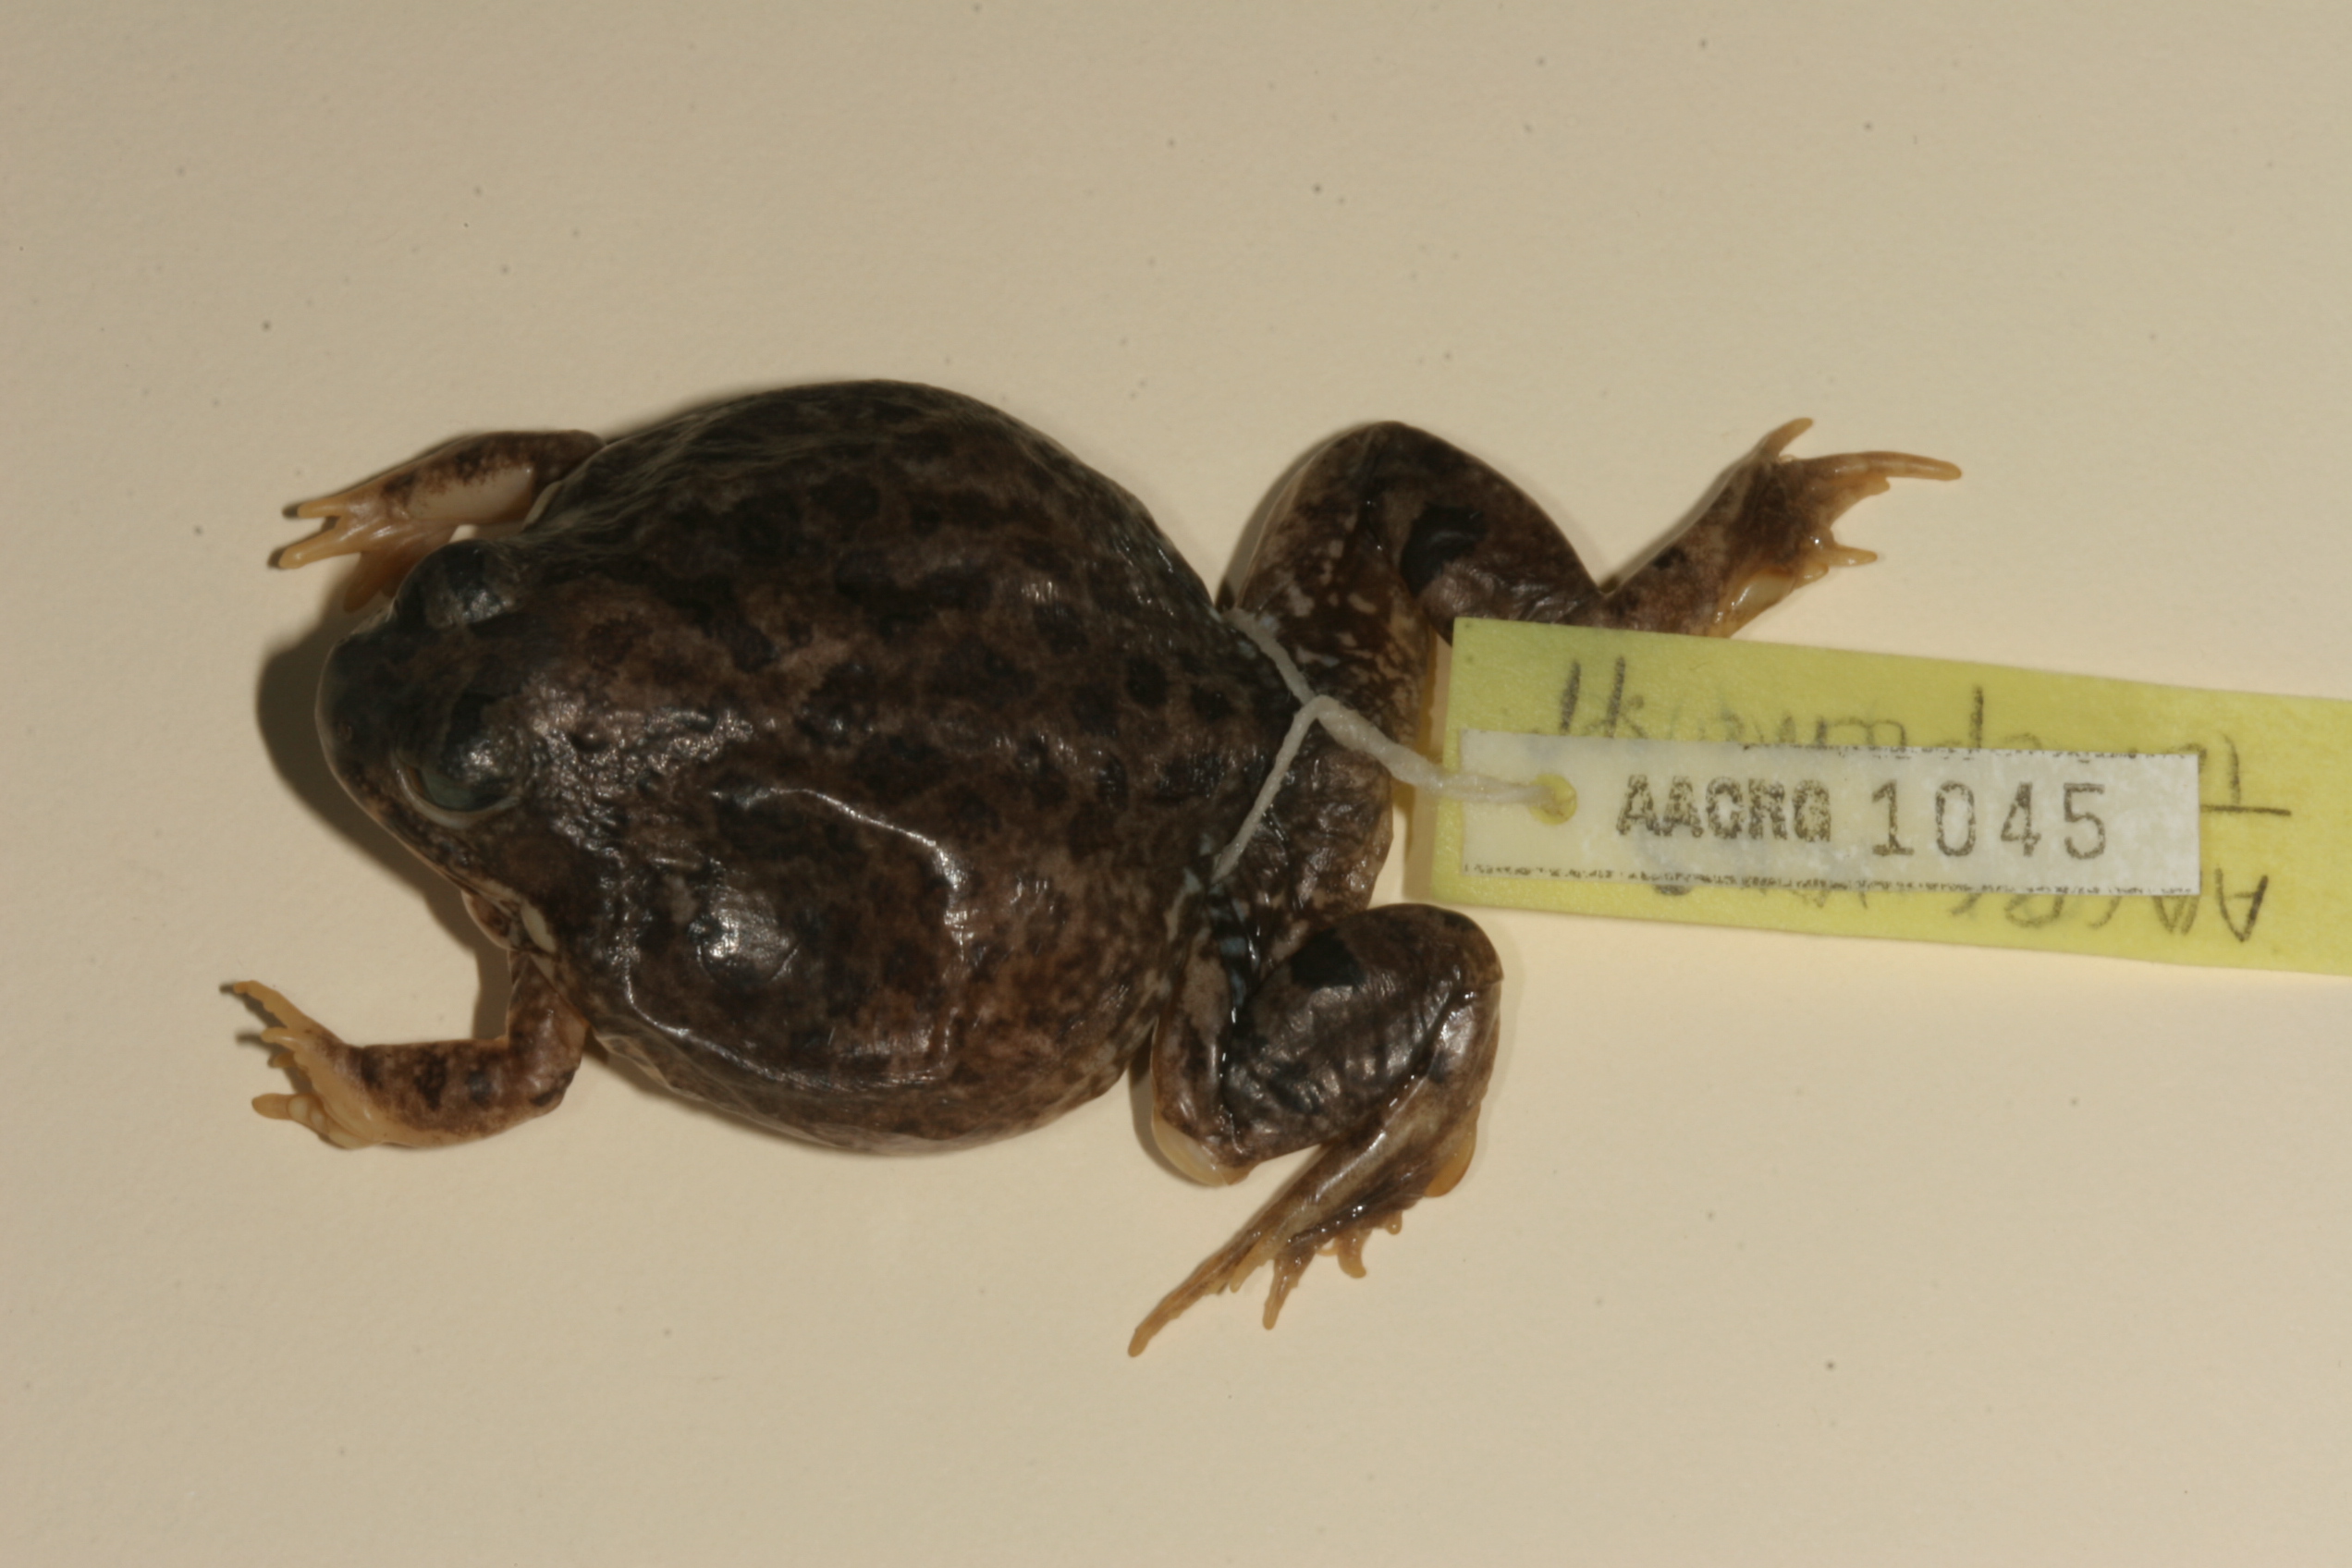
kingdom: Animalia
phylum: Chordata
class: Amphibia
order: Anura
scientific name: Anura
